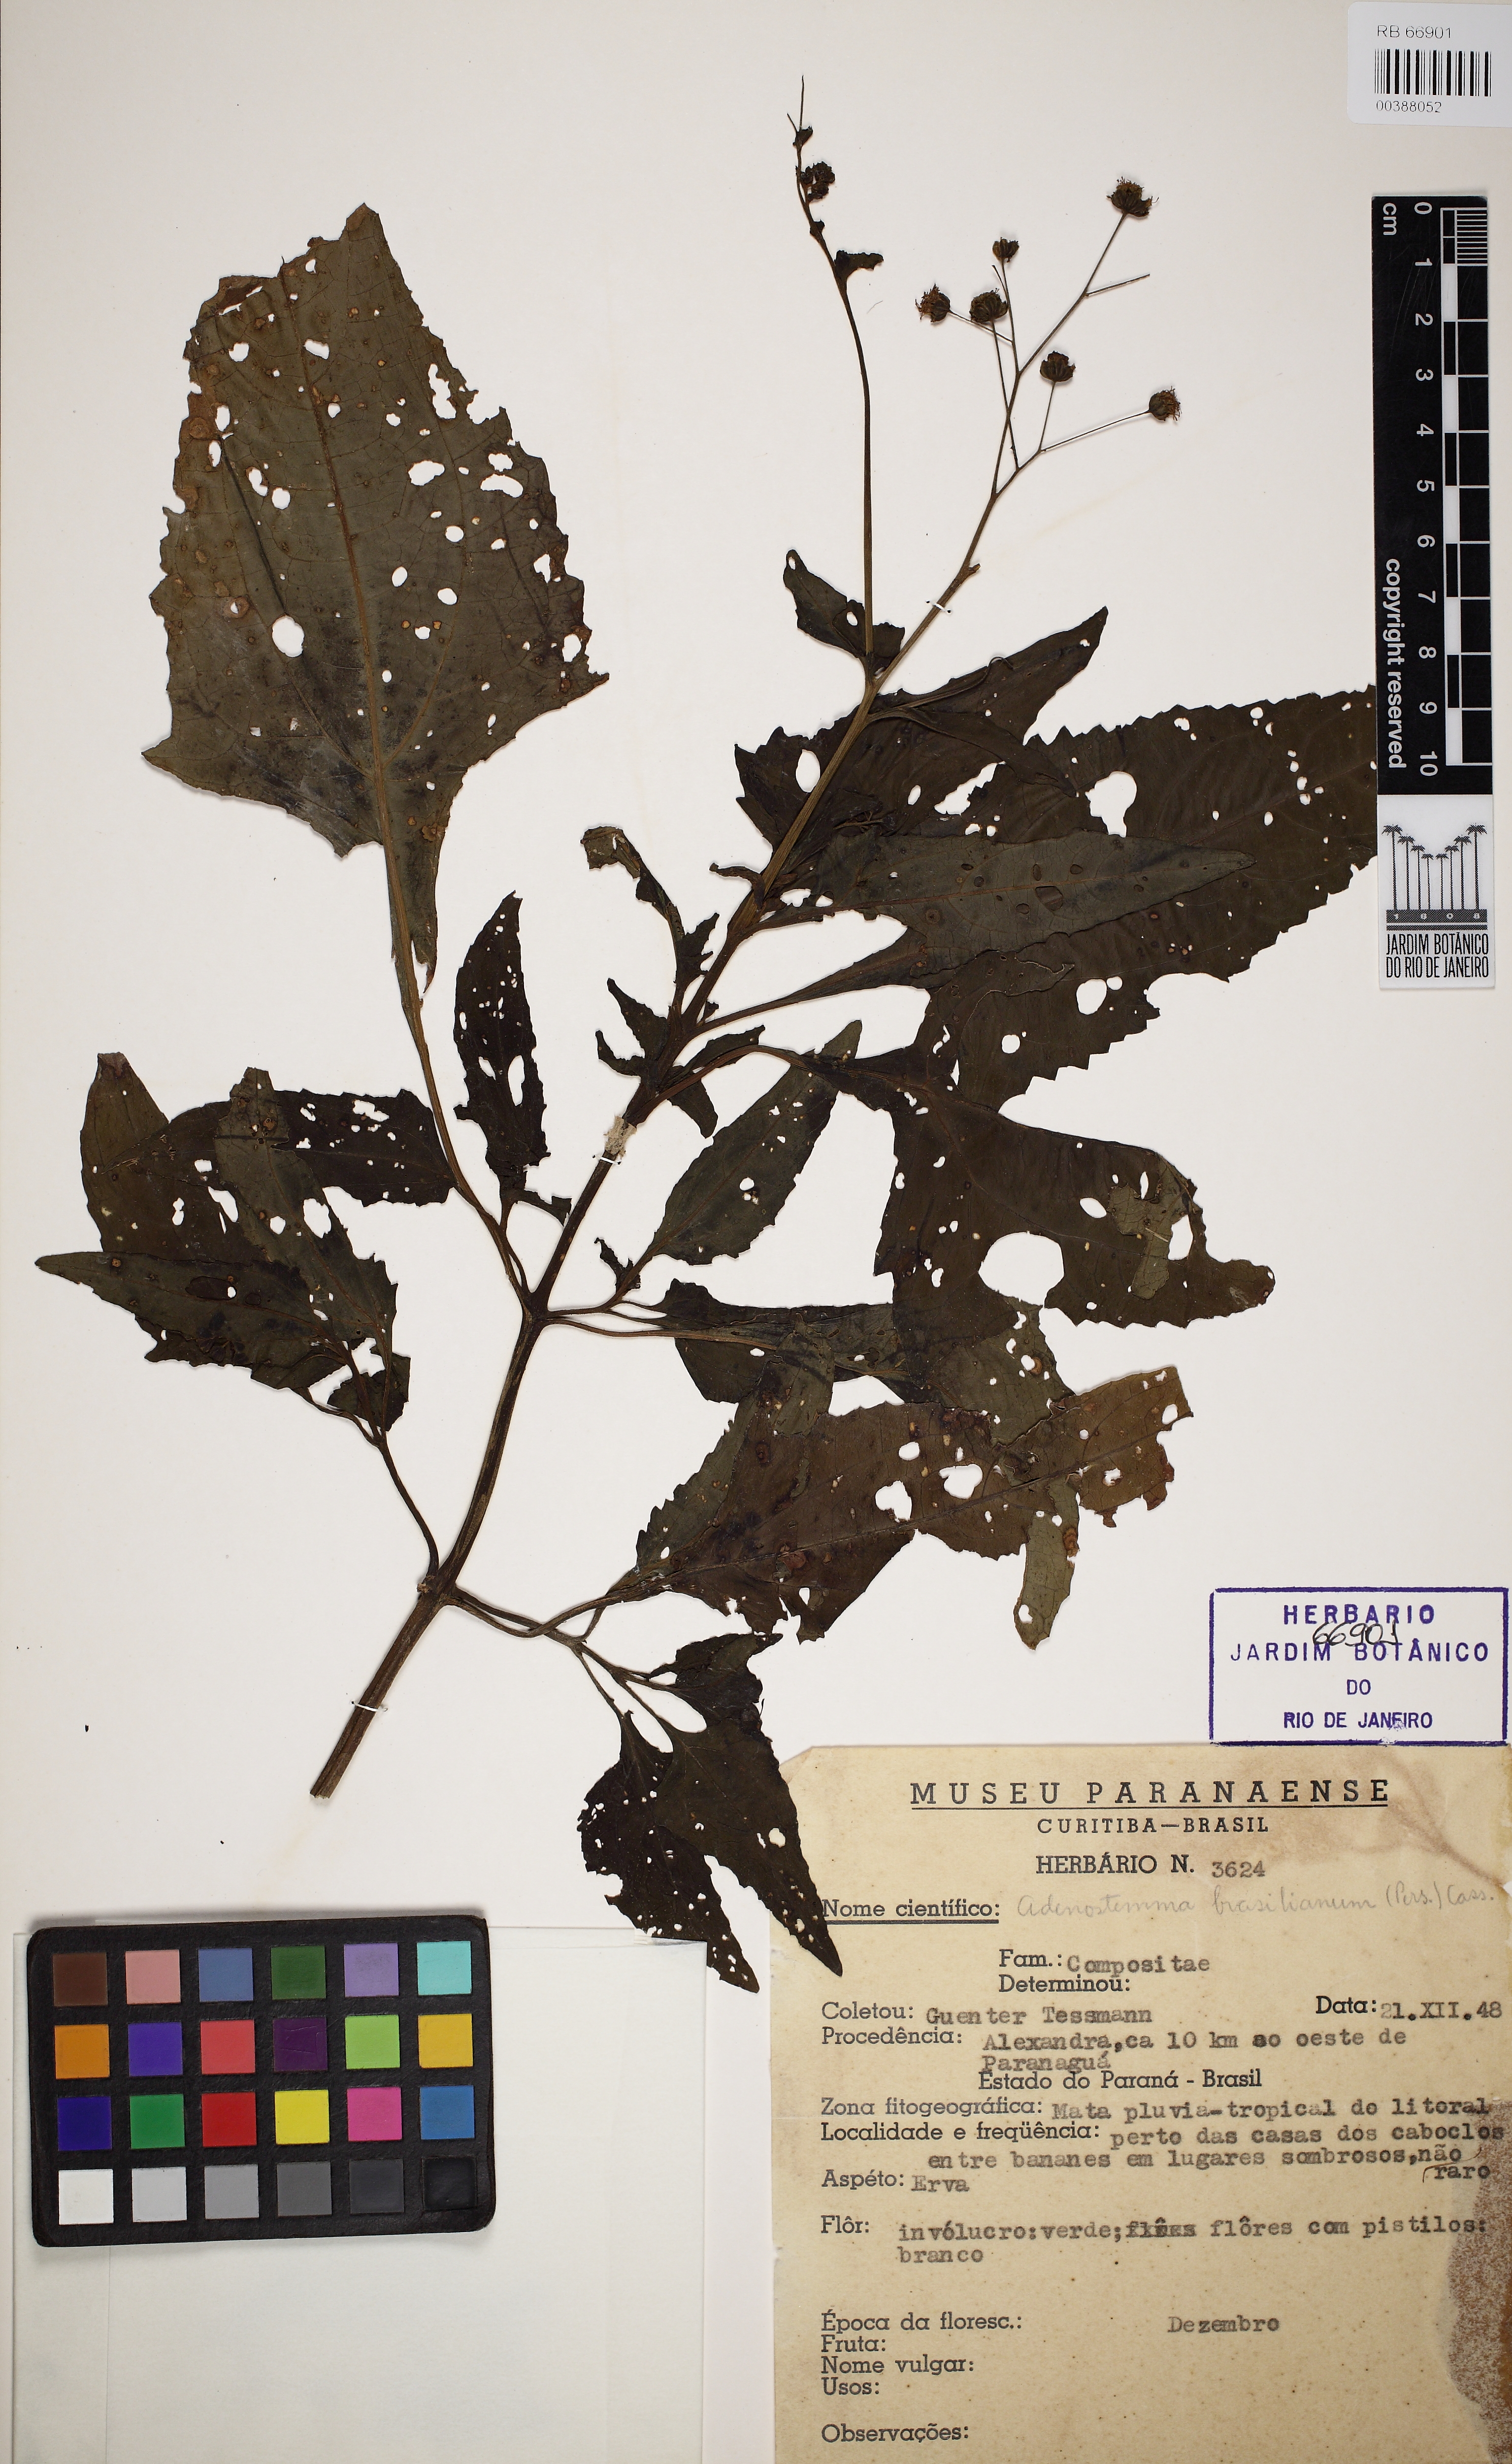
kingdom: Plantae
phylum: Tracheophyta
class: Magnoliopsida
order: Asterales
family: Asteraceae
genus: Adenostemma
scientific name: Adenostemma brasilianum
